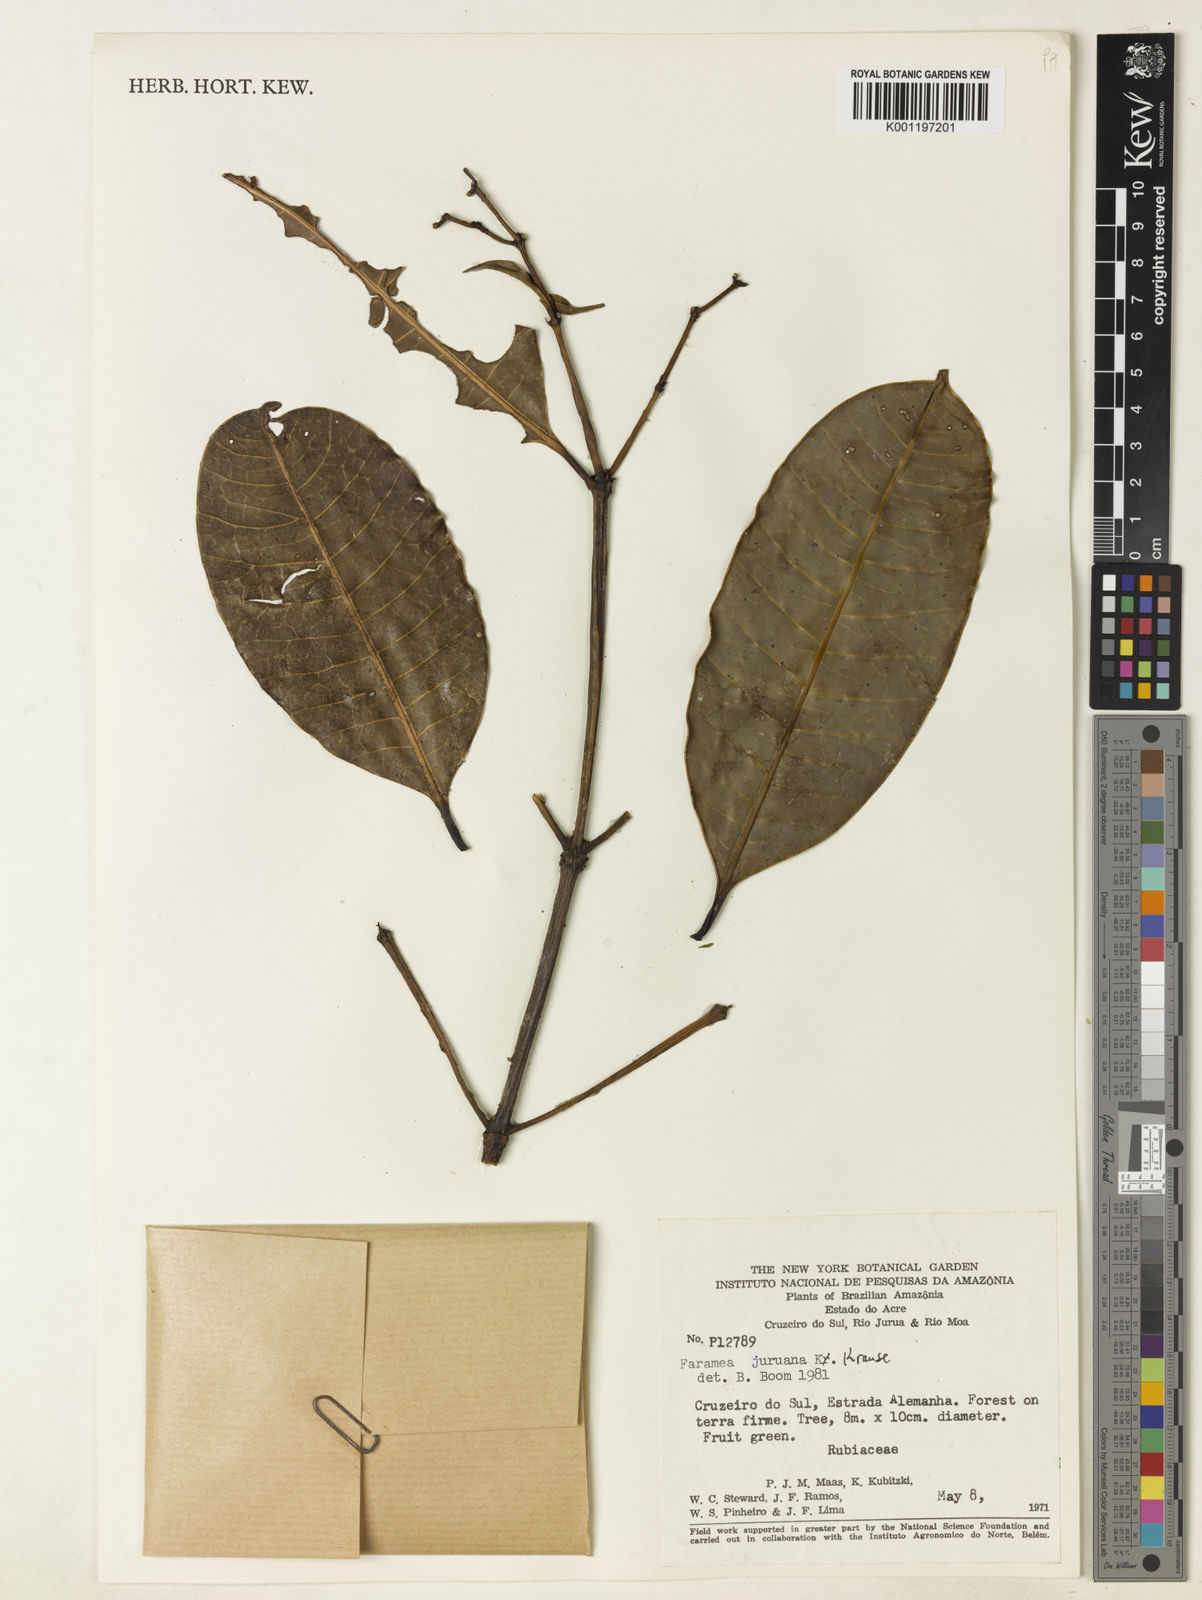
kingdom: Plantae
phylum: Tracheophyta
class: Magnoliopsida
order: Gentianales
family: Rubiaceae
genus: Faramea
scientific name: Faramea juruana
